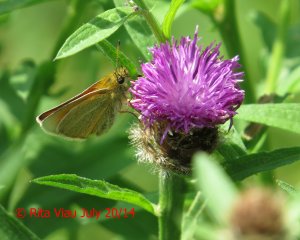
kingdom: Animalia
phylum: Arthropoda
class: Insecta
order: Lepidoptera
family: Hesperiidae
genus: Thymelicus
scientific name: Thymelicus lineola
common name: European Skipper
